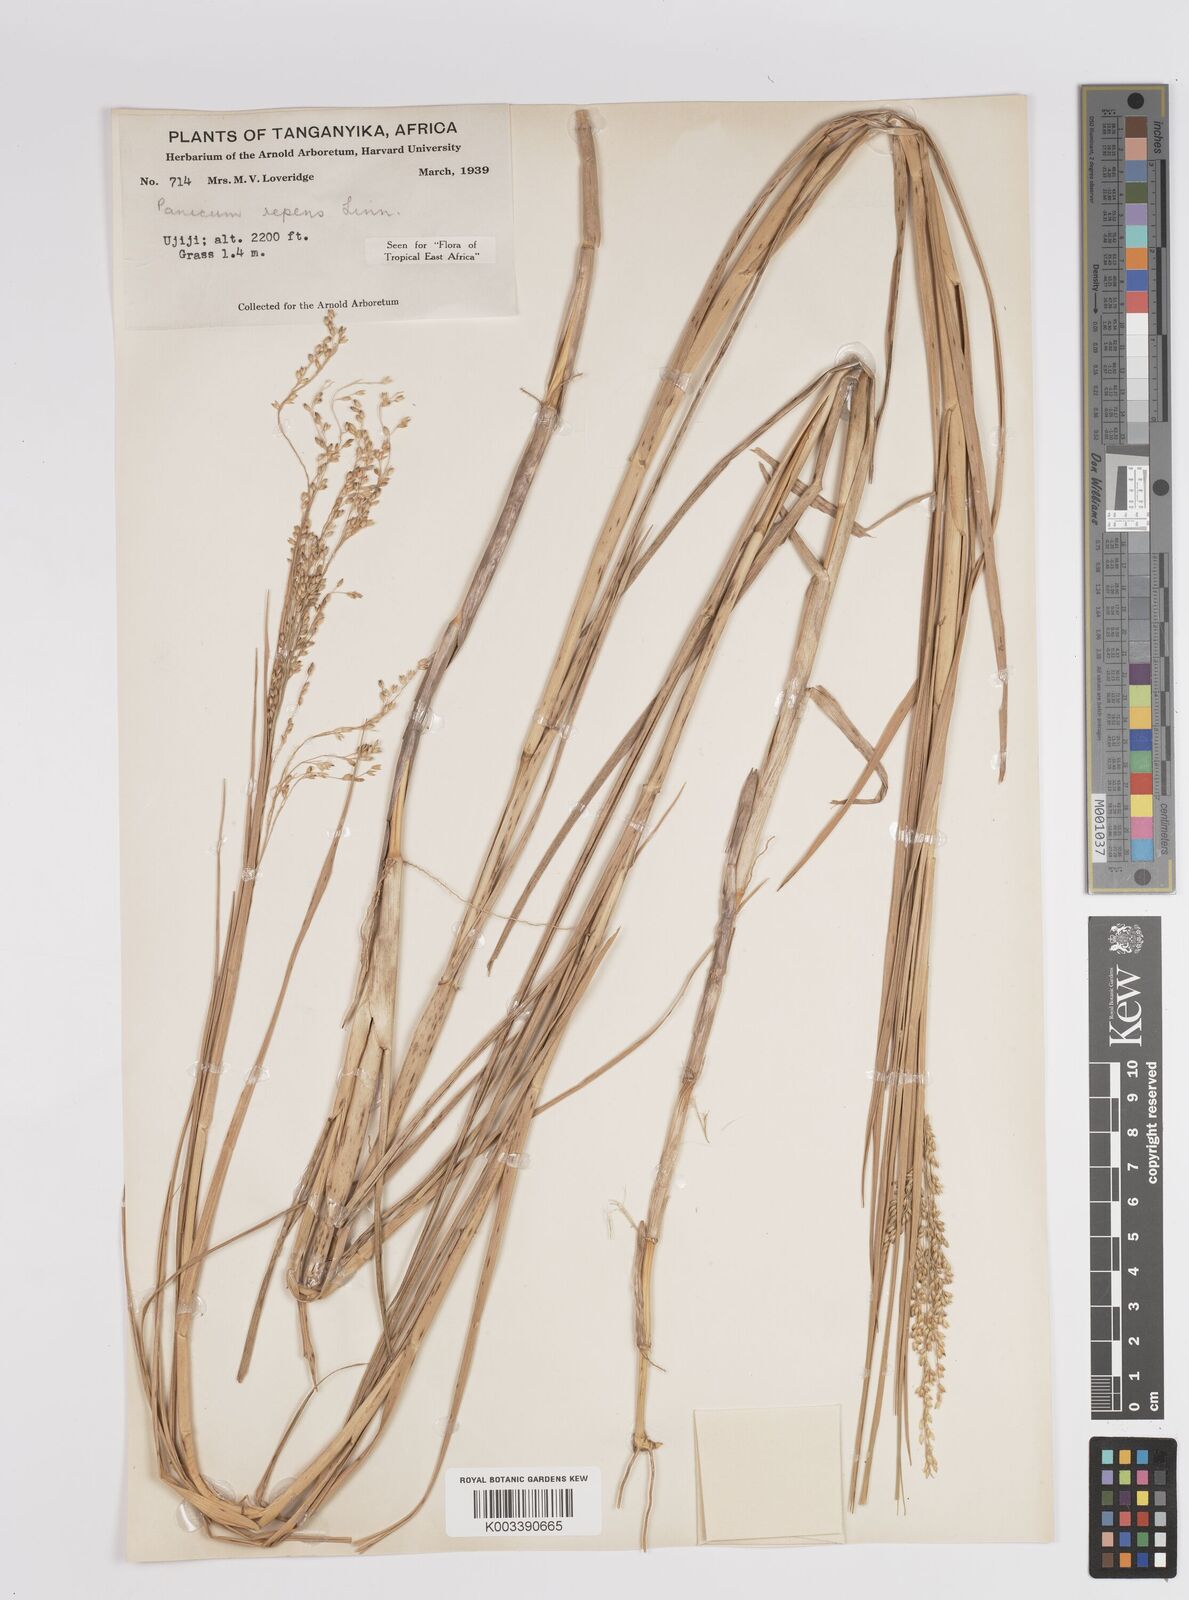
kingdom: Plantae
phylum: Tracheophyta
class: Liliopsida
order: Poales
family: Poaceae
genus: Panicum
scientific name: Panicum repens
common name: Torpedo grass
